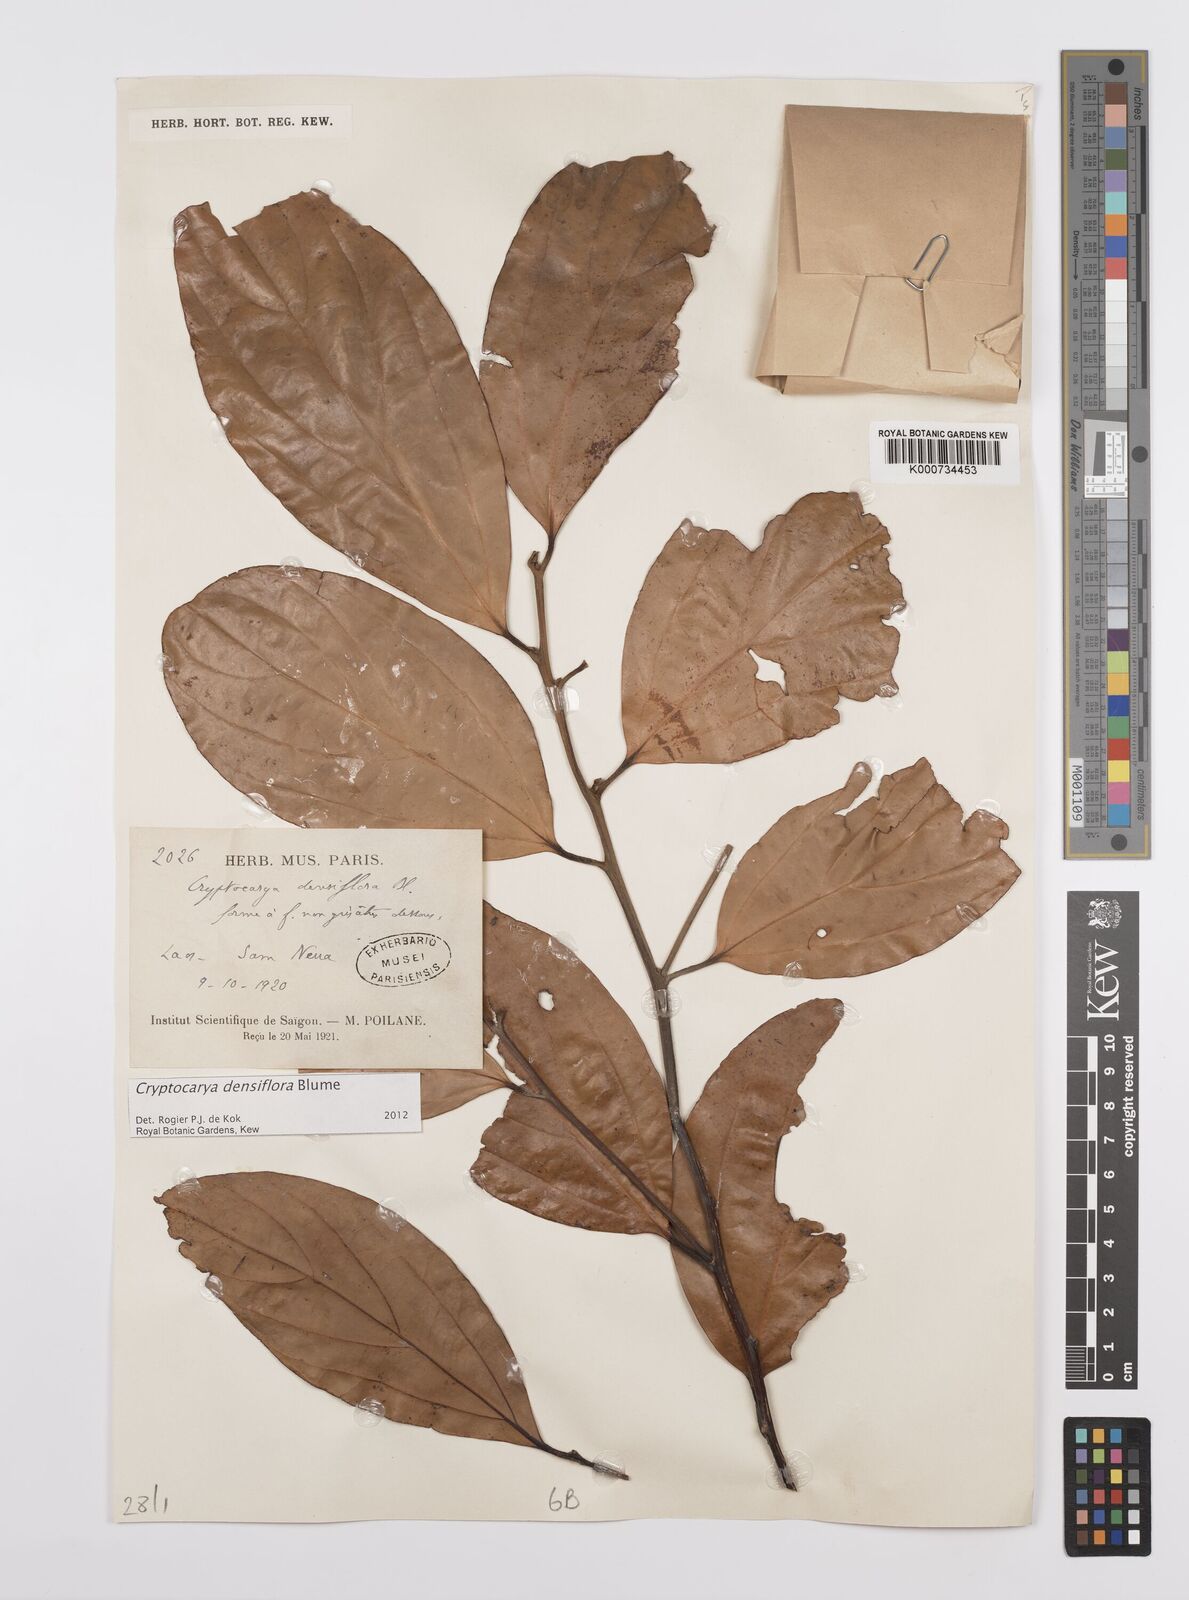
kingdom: Plantae
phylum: Tracheophyta
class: Magnoliopsida
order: Laurales
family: Lauraceae
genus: Cryptocarya
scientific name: Cryptocarya densiflora
